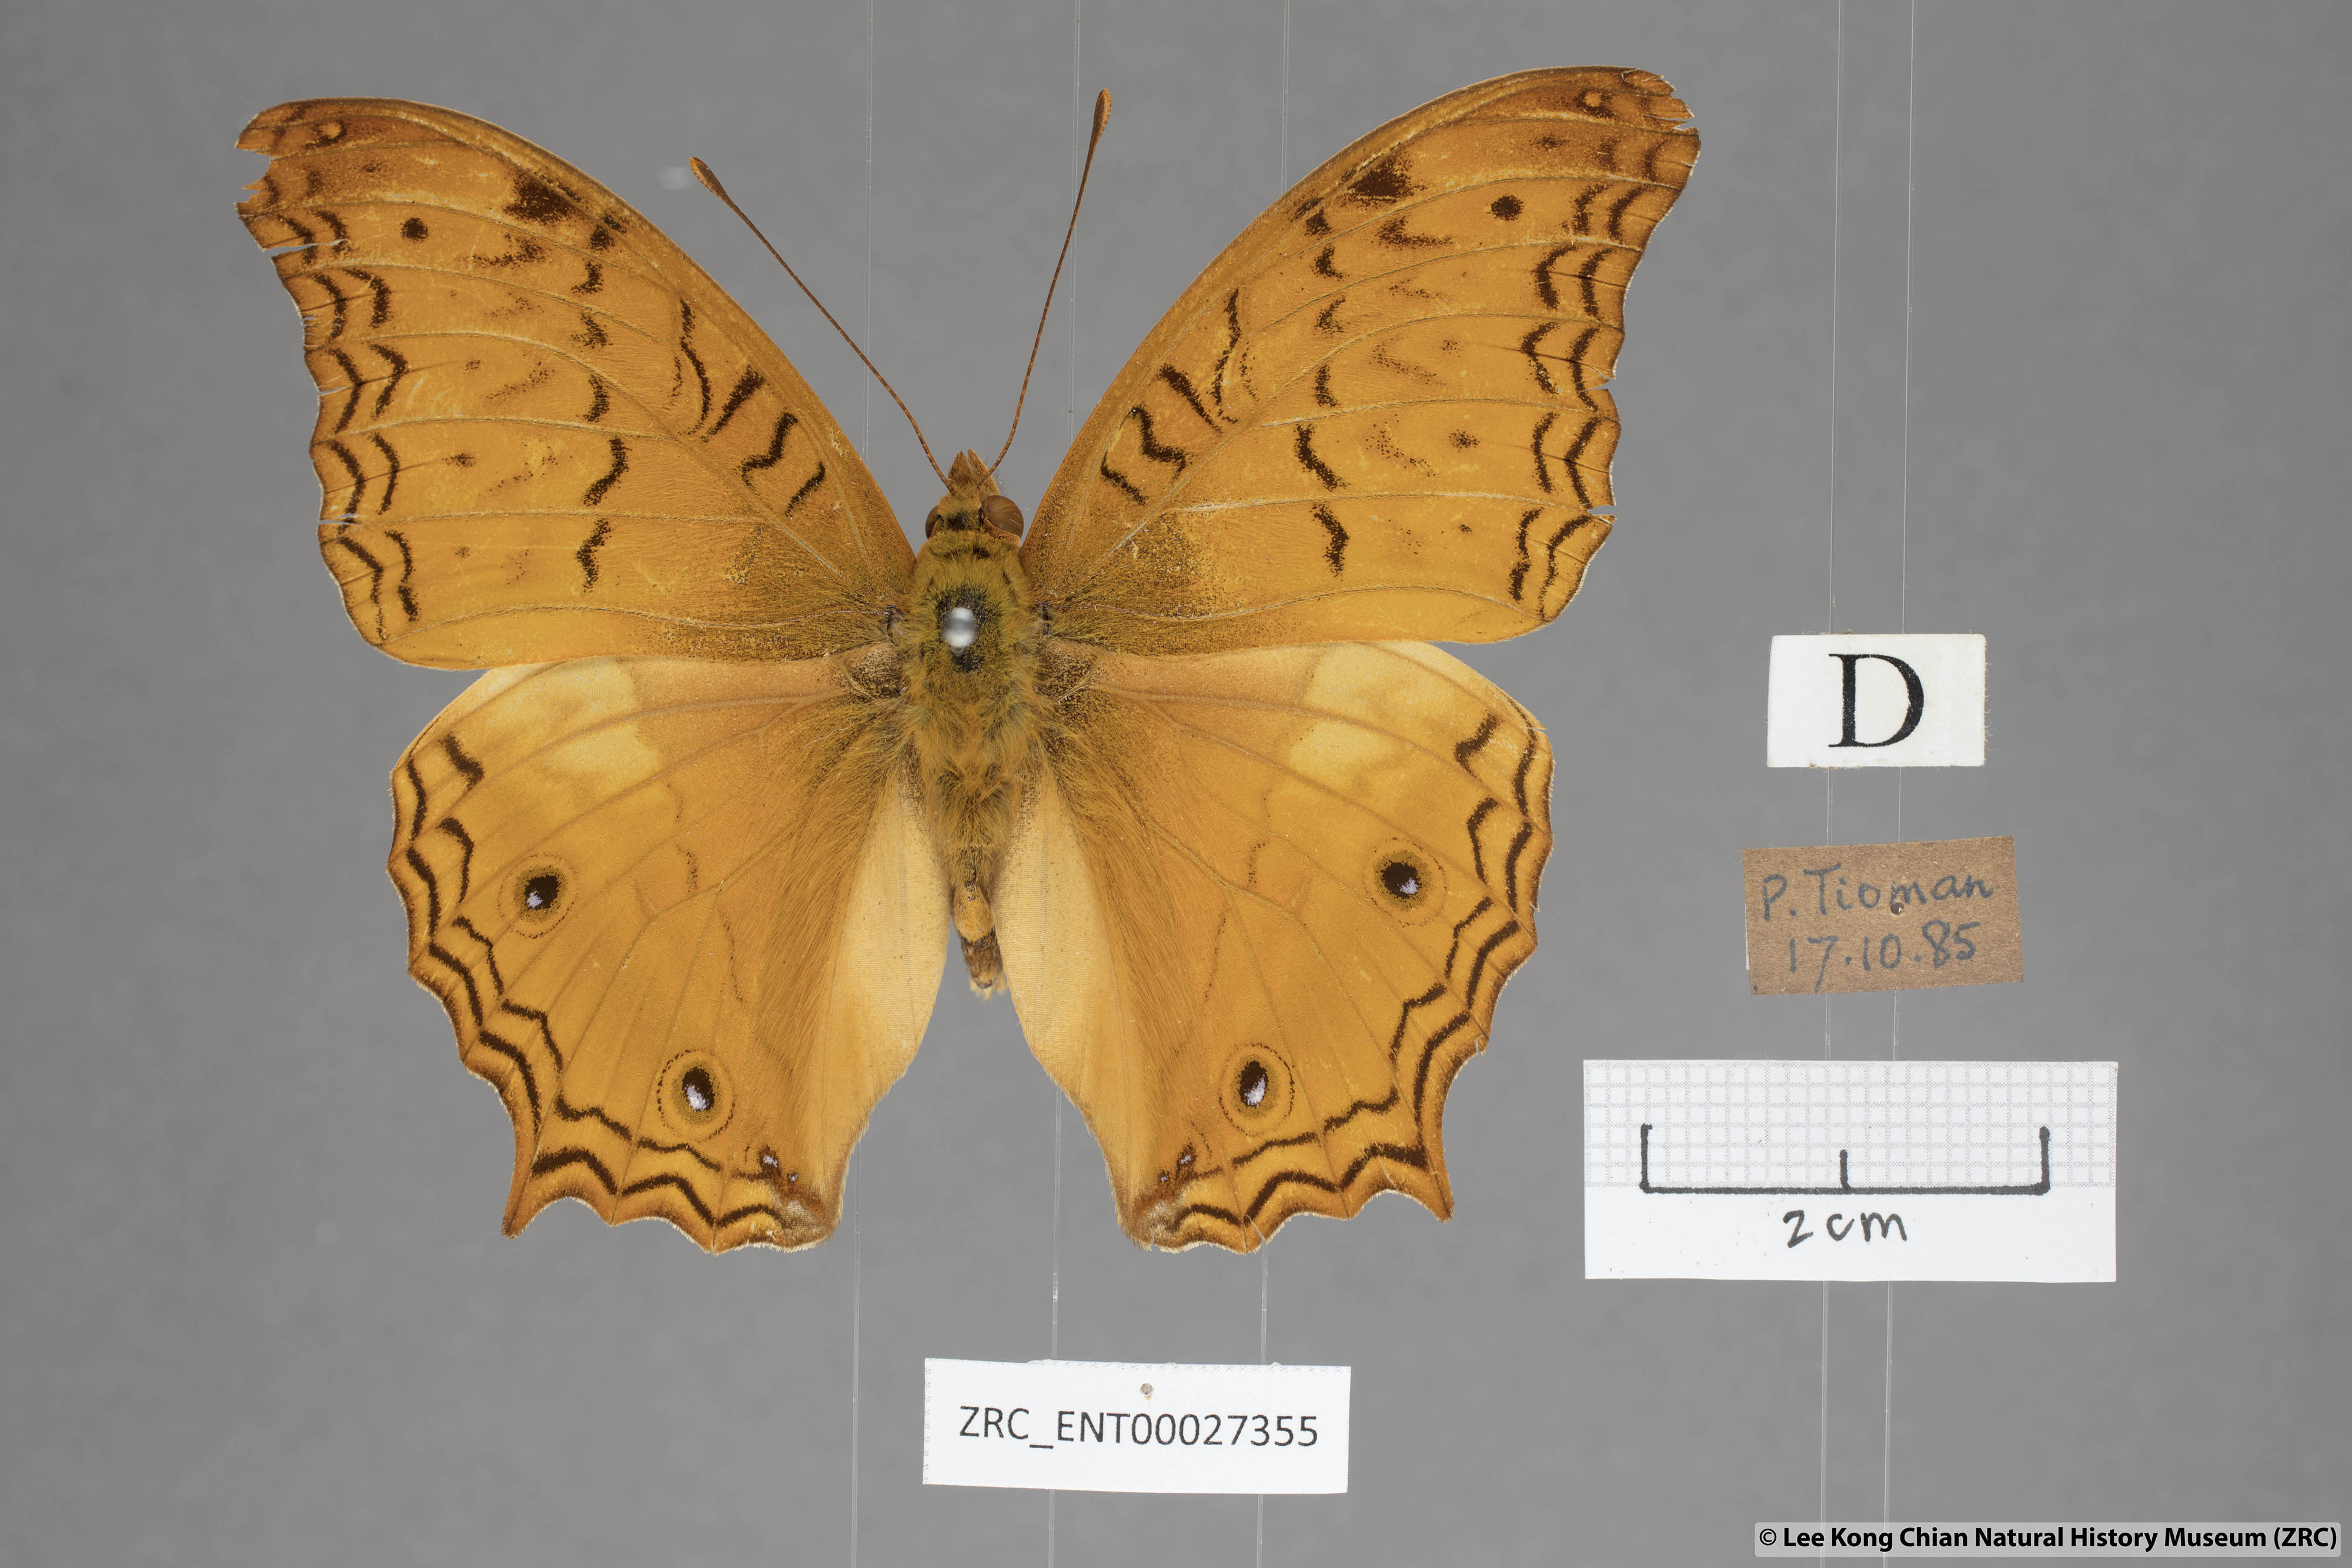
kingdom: Animalia
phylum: Arthropoda
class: Insecta
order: Lepidoptera
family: Nymphalidae
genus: Vindula
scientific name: Vindula deione
